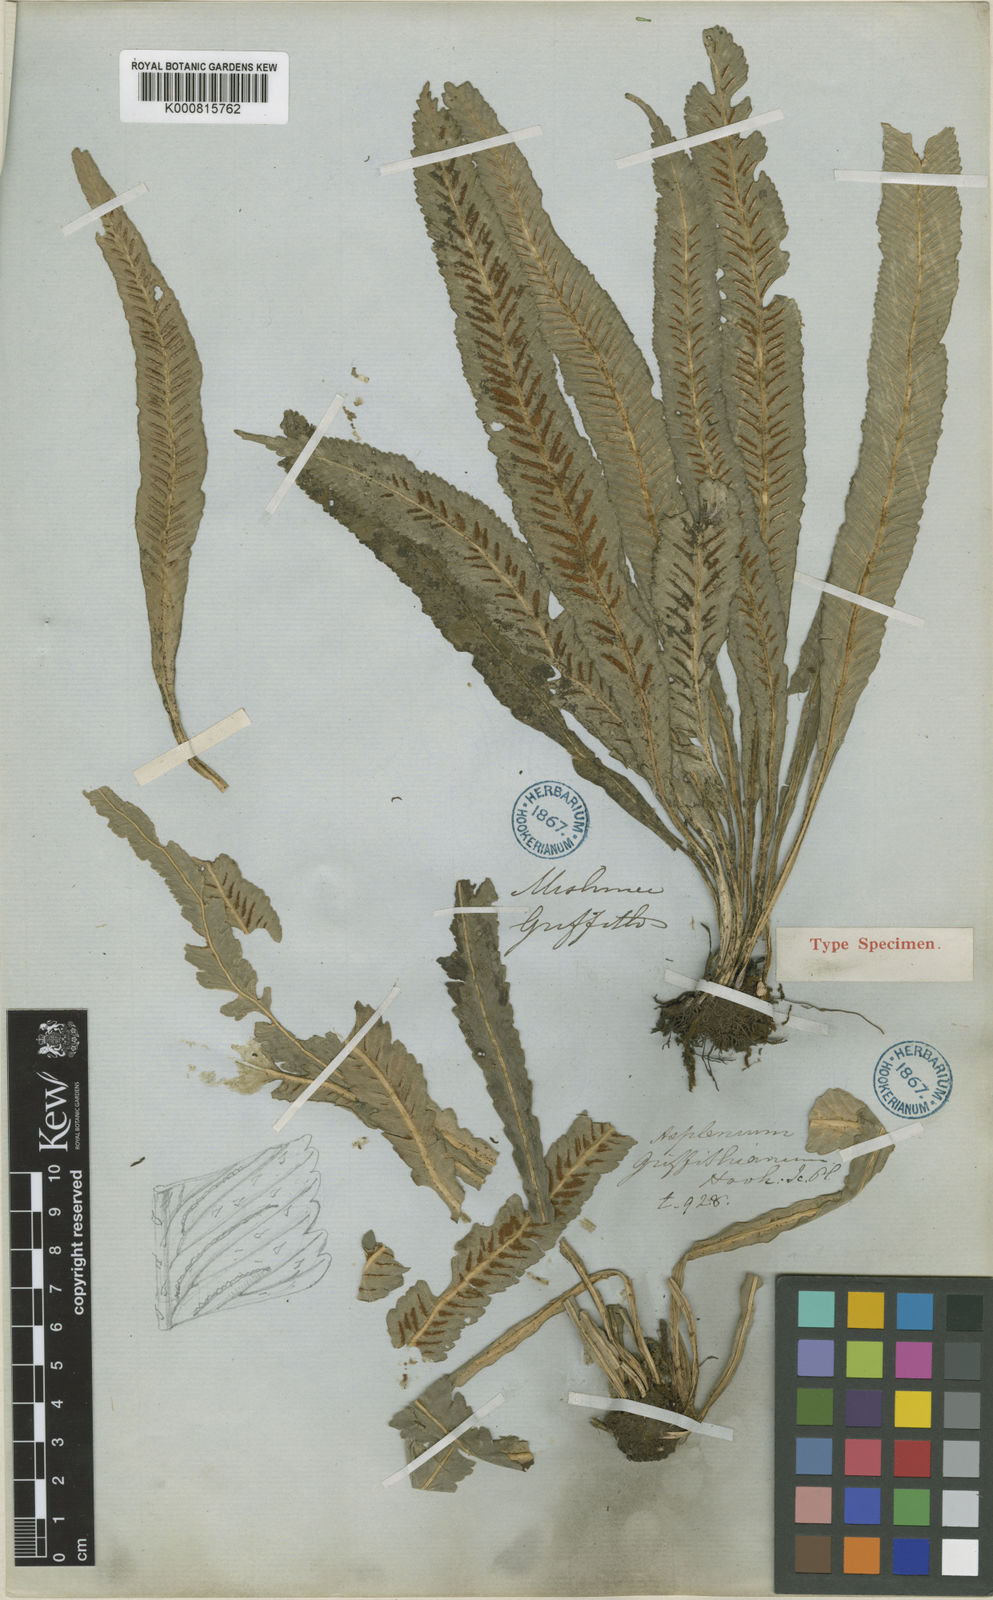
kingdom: Plantae
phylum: Tracheophyta
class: Polypodiopsida
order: Polypodiales
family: Aspleniaceae
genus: Asplenium
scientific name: Asplenium griffithianum
